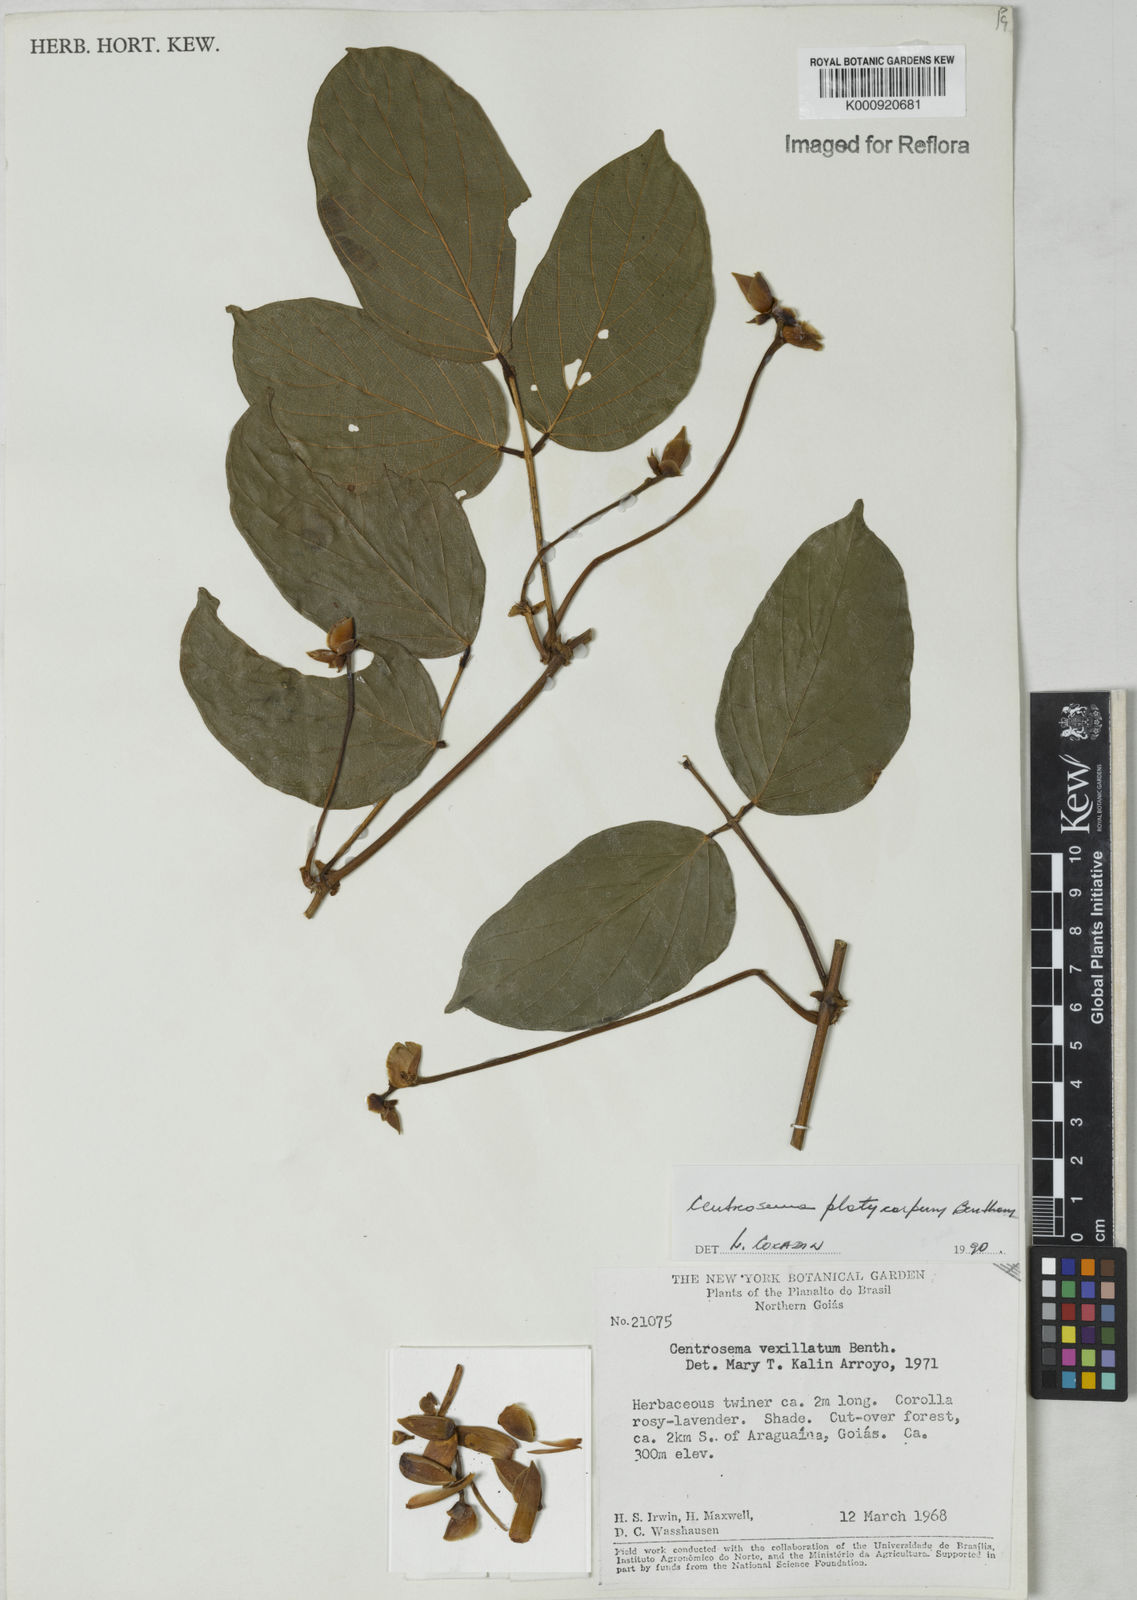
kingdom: Plantae
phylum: Tracheophyta
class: Magnoliopsida
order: Fabales
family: Fabaceae
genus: Centrosema
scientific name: Centrosema platycarpum
